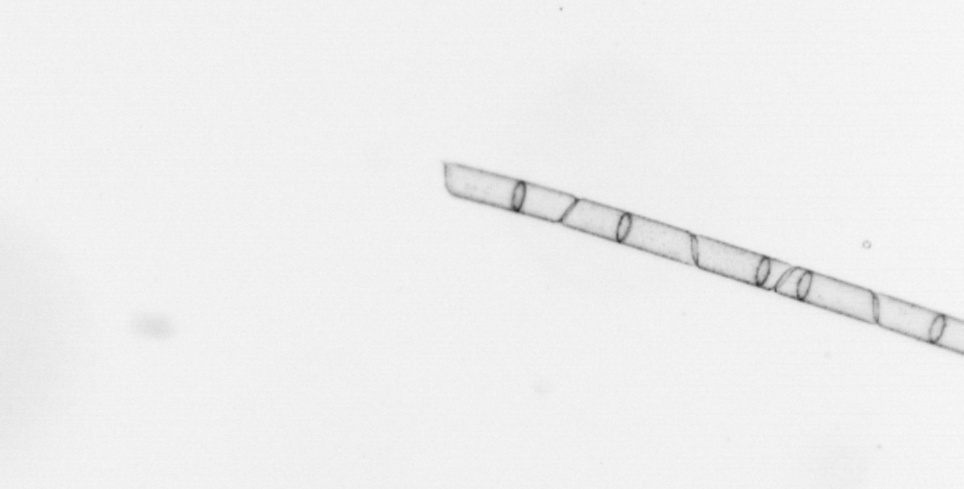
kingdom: Chromista
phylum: Ochrophyta
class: Bacillariophyceae
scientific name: Bacillariophyceae
